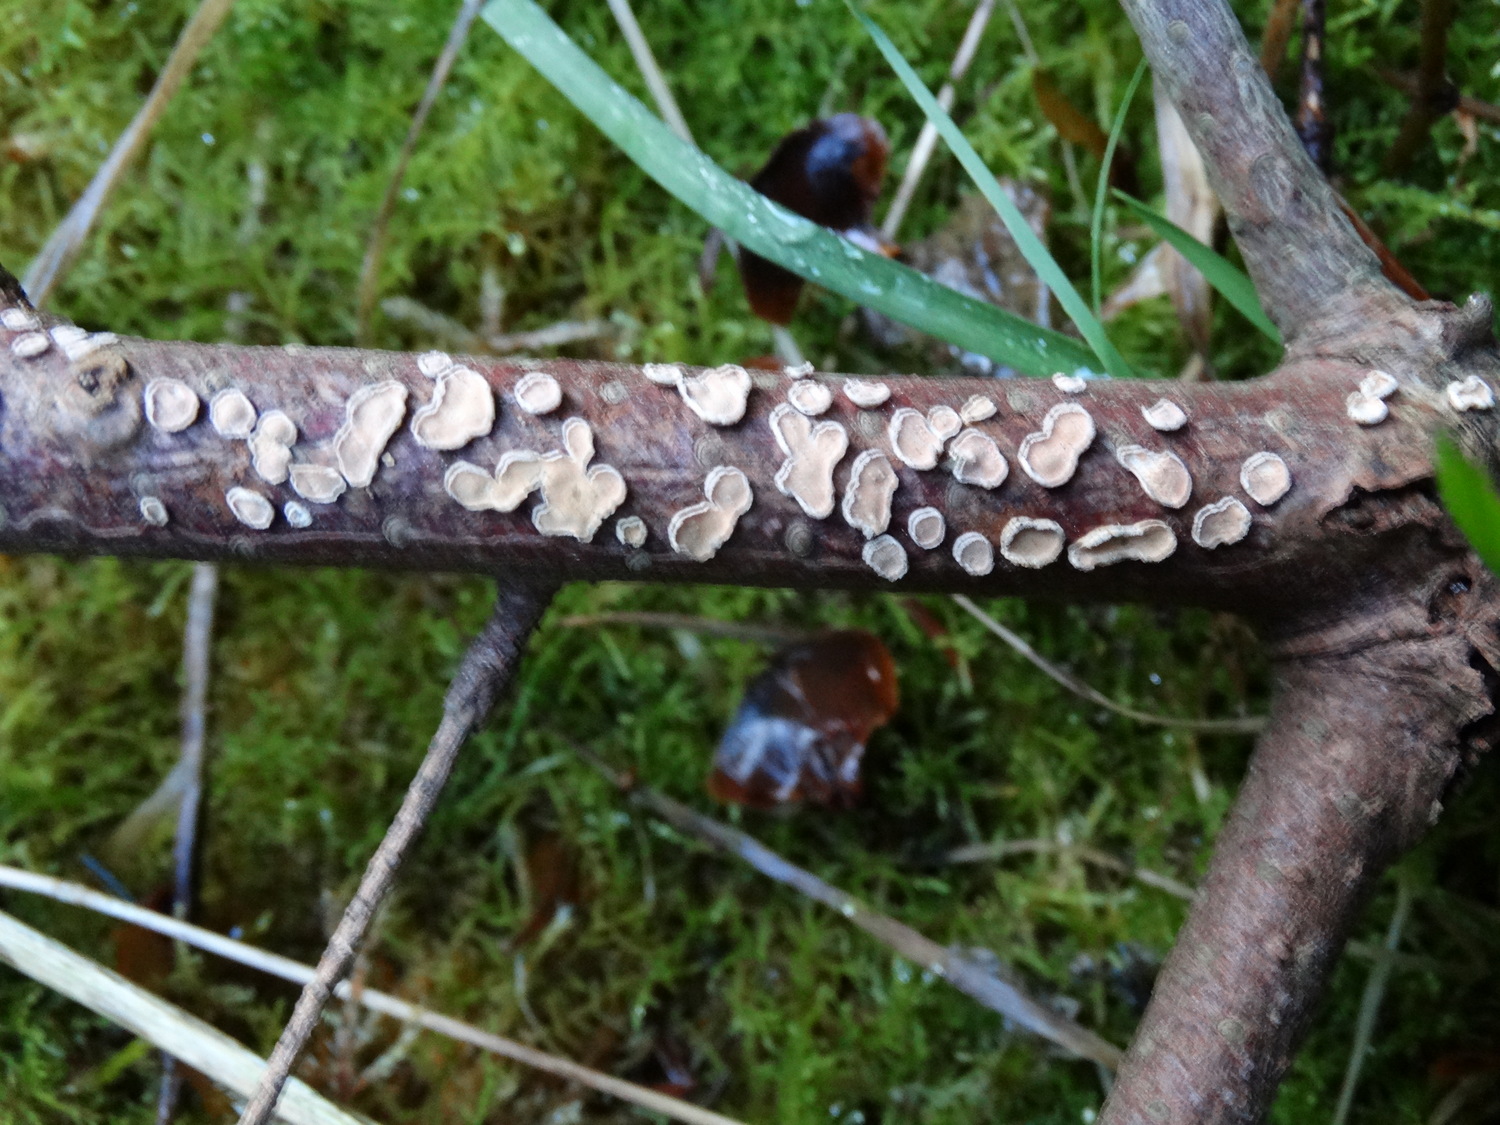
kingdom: Fungi
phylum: Basidiomycota
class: Agaricomycetes
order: Russulales
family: Stereaceae
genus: Aleurodiscus
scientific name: Aleurodiscus amorphus
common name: orange skiveskorpe
